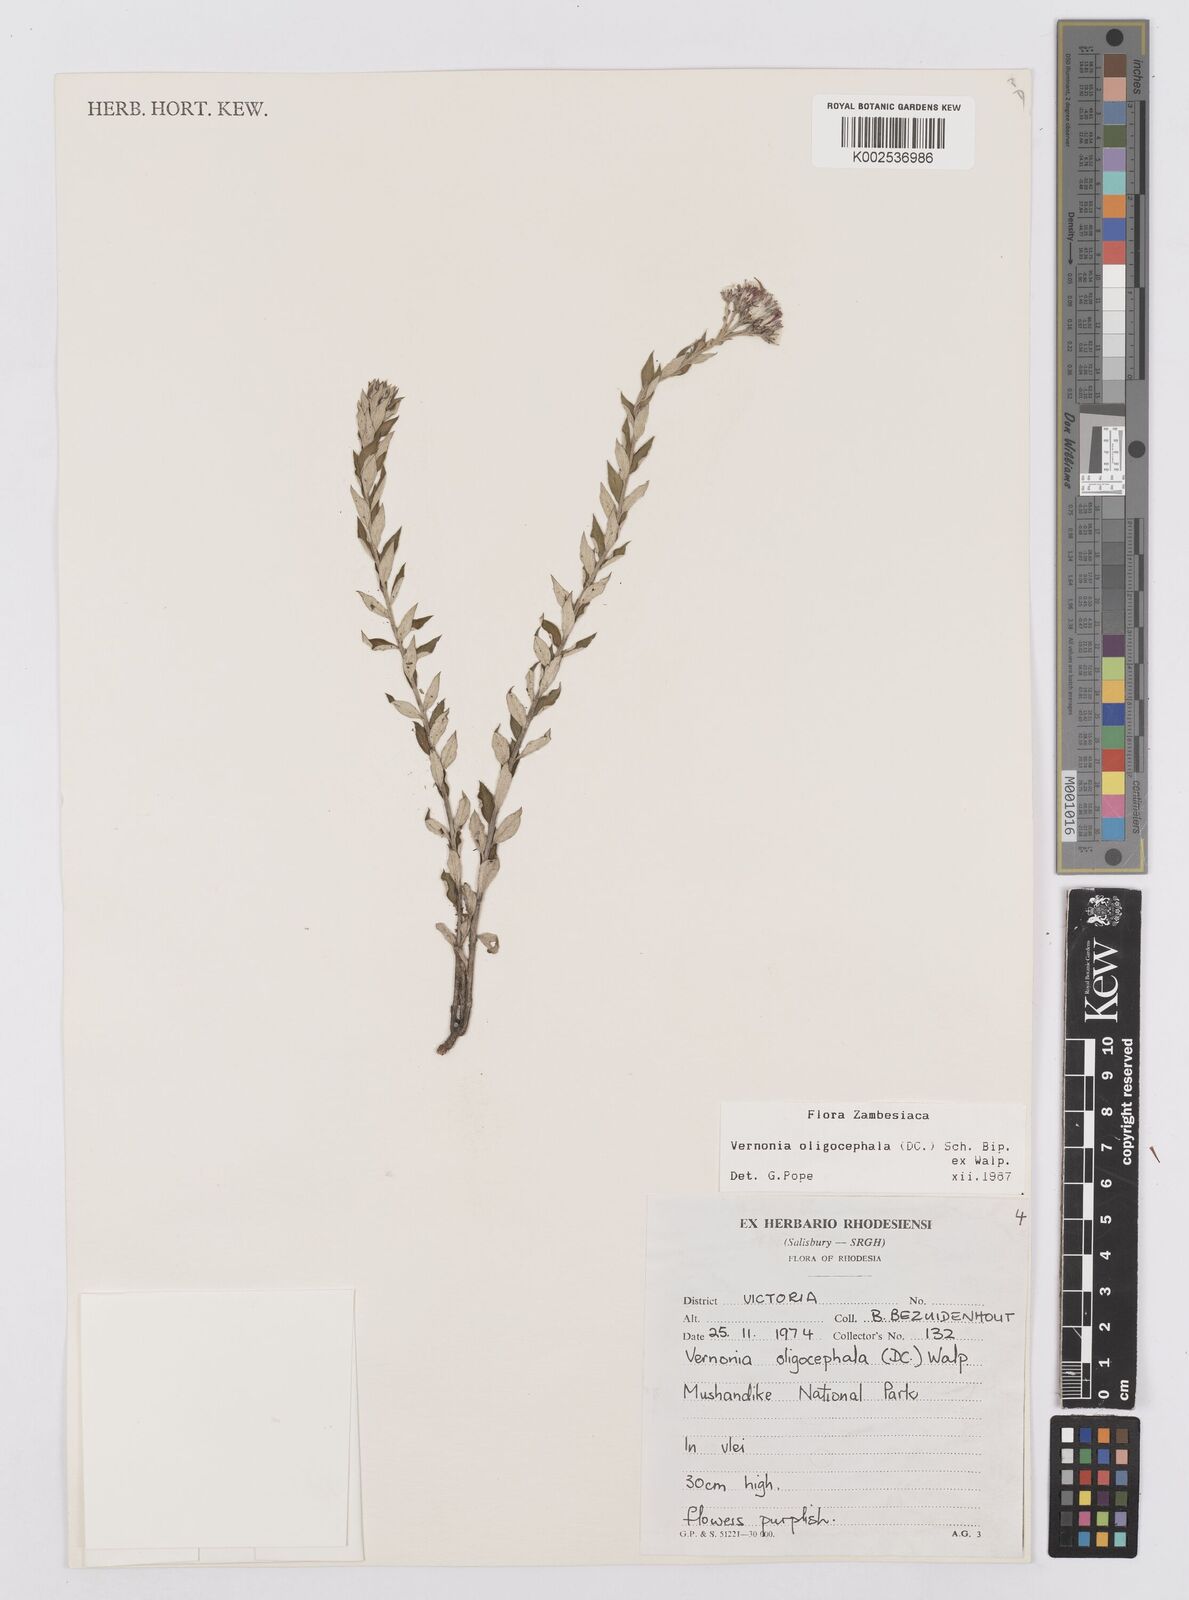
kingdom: Plantae
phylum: Tracheophyta
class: Magnoliopsida
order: Asterales
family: Asteraceae
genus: Hilliardiella
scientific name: Hilliardiella oligocephala
